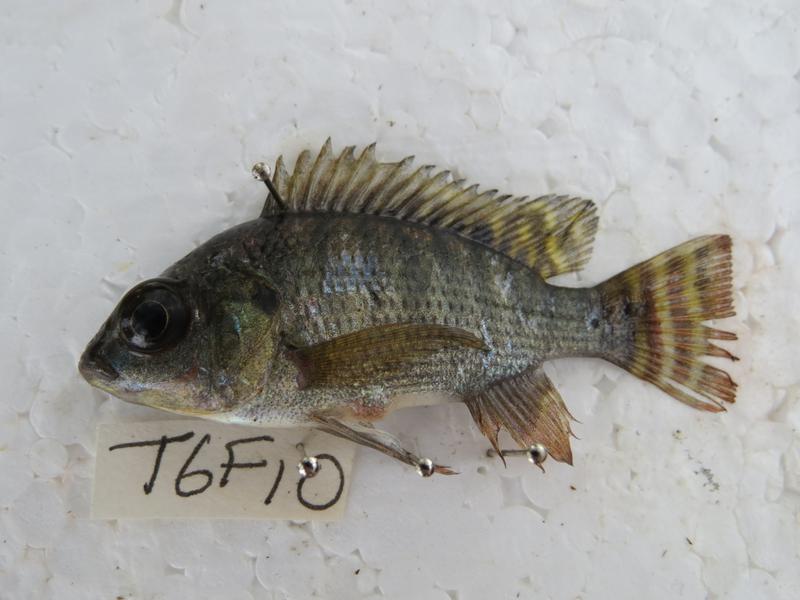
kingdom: Animalia
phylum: Chordata
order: Perciformes
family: Cichlidae
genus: Oreochromis
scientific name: Oreochromis niloticus
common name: Nile tilapia
